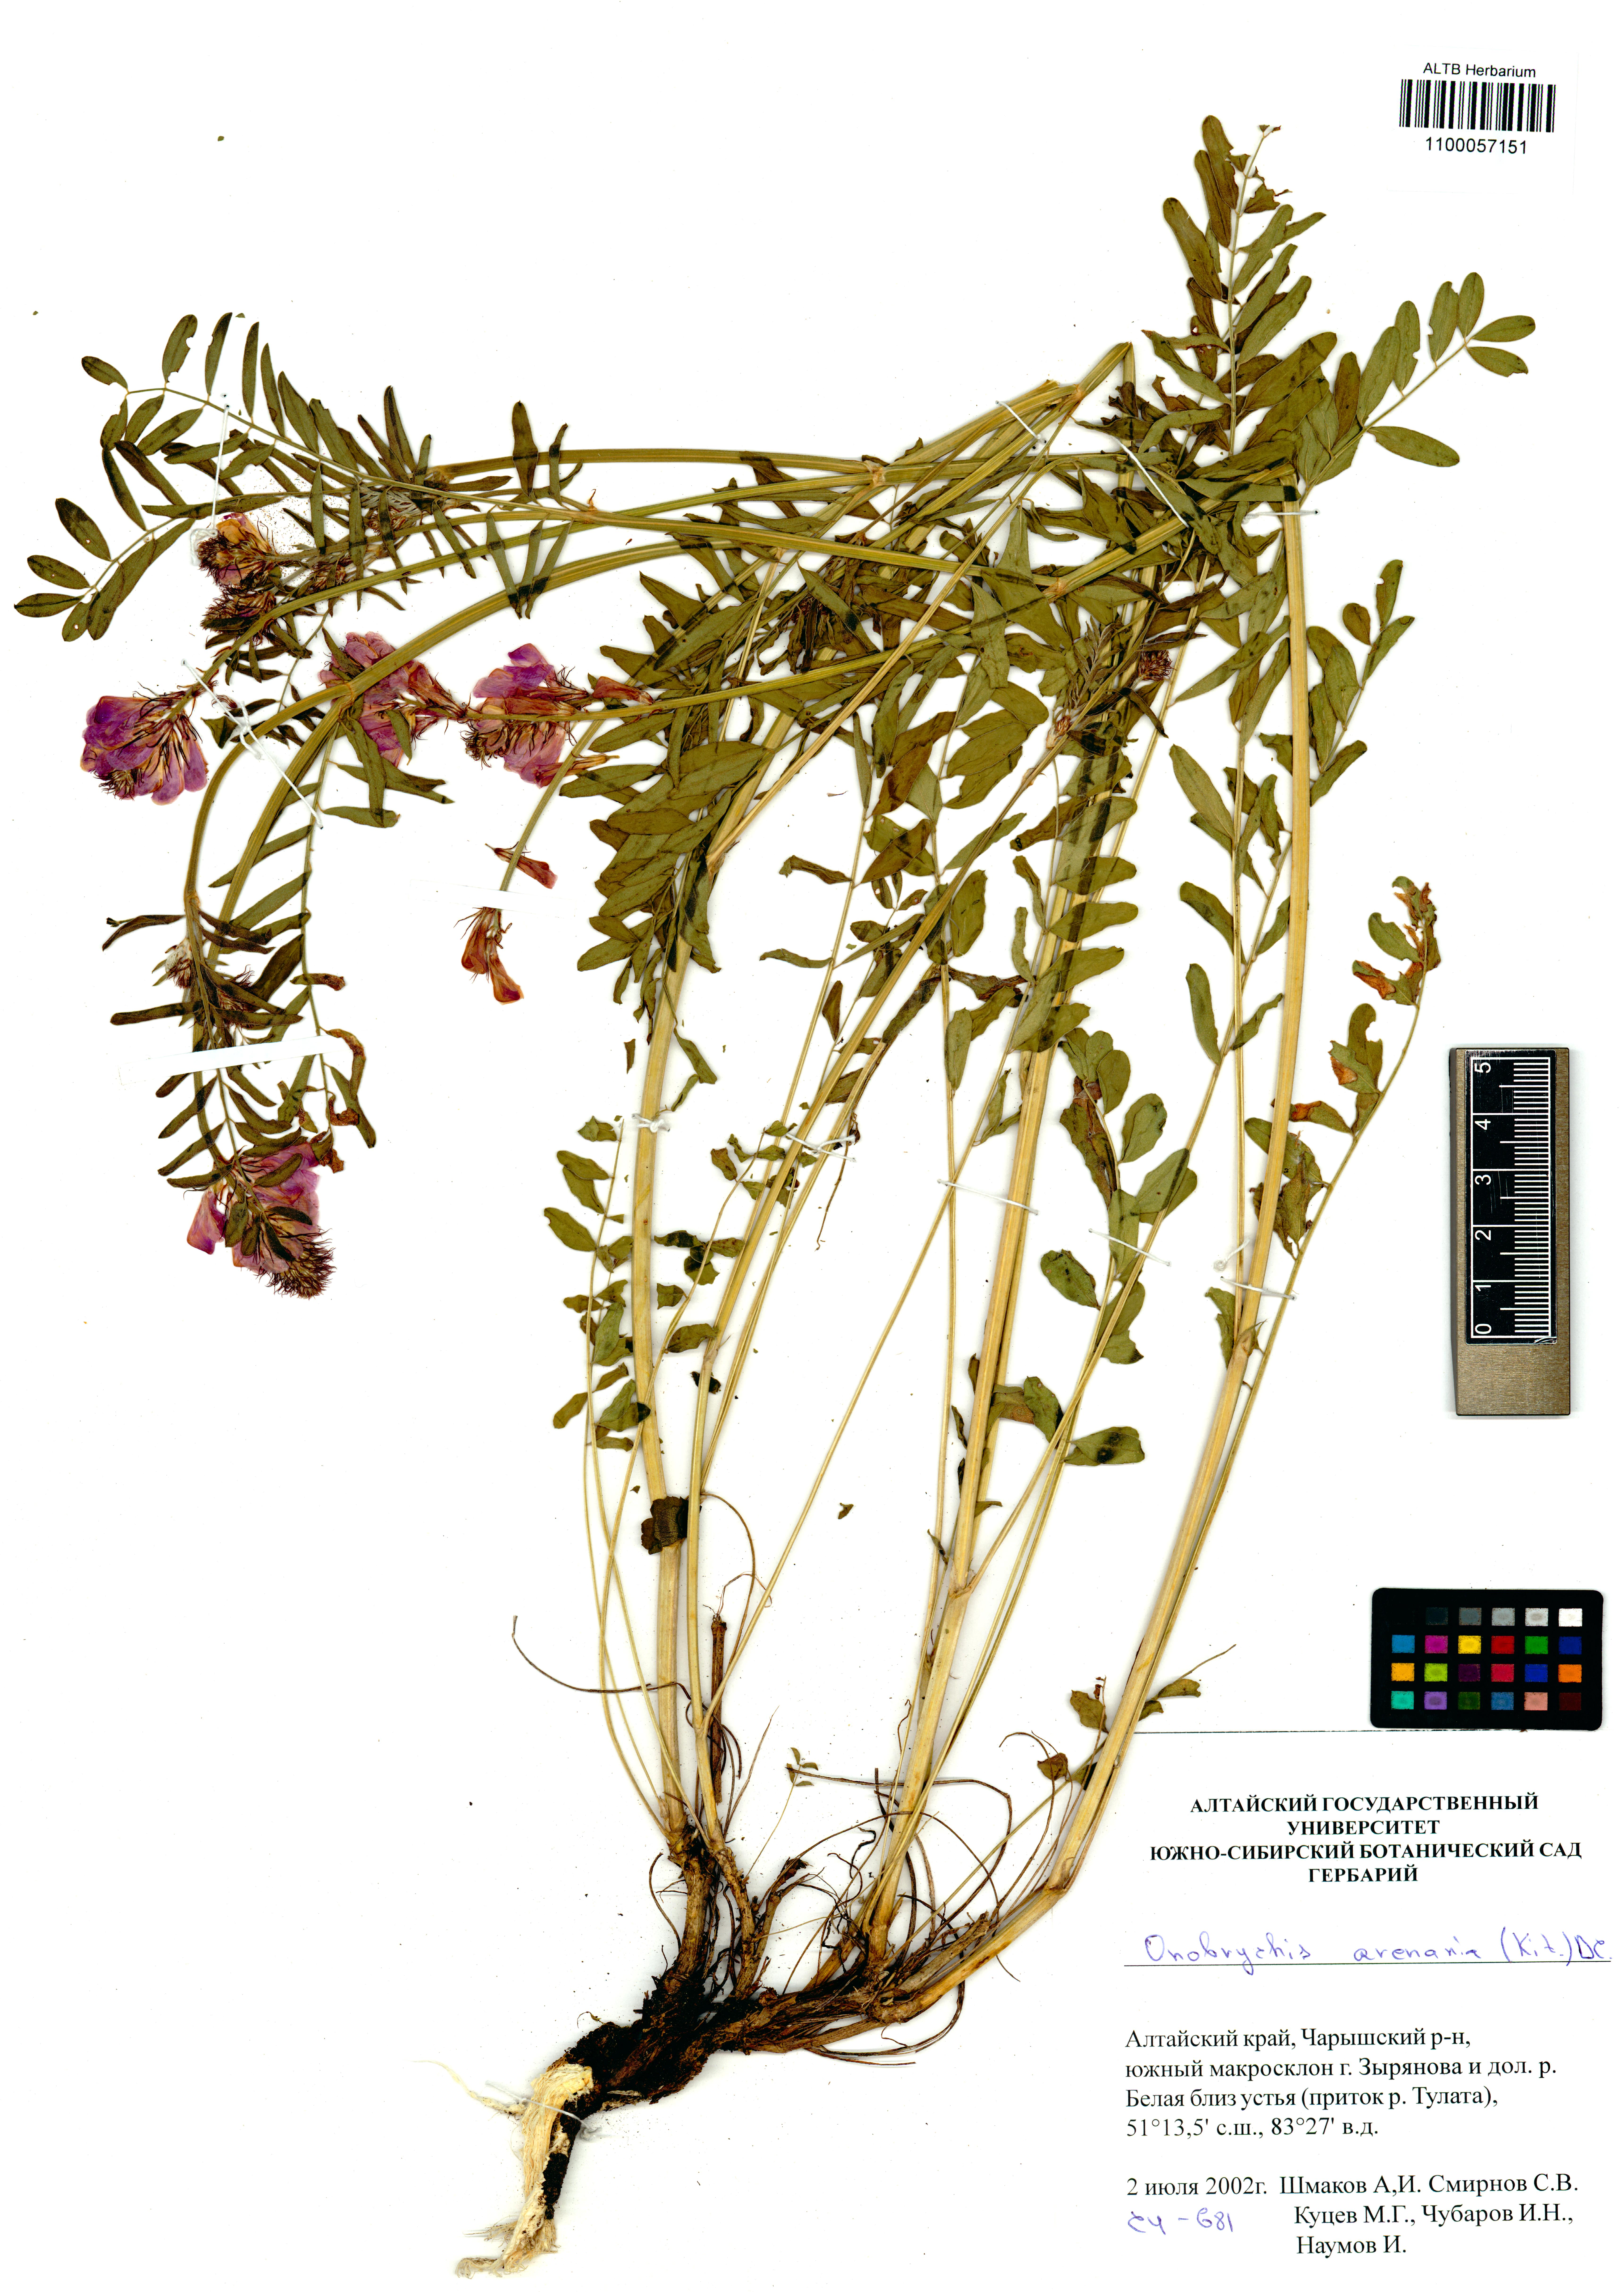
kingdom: Plantae
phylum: Tracheophyta
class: Magnoliopsida
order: Fabales
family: Fabaceae
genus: Onobrychis
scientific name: Onobrychis arenaria
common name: Sand esparcet
